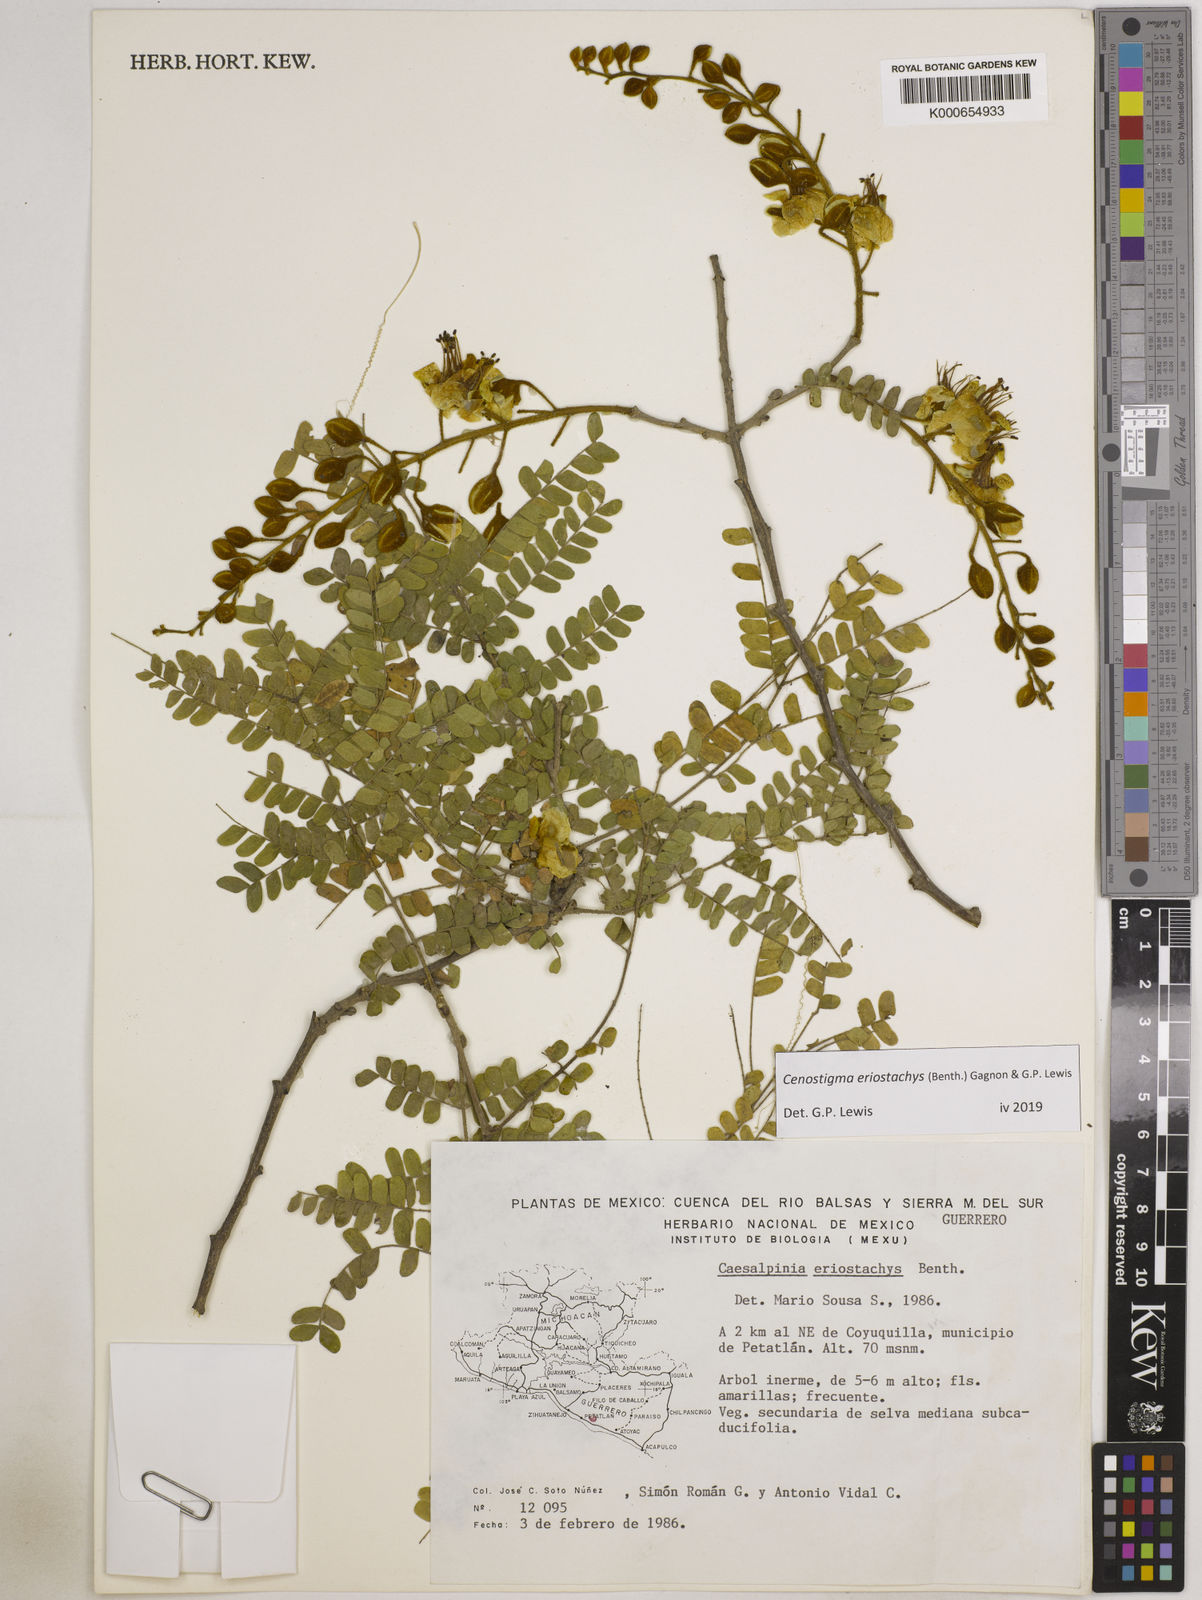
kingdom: Plantae
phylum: Tracheophyta
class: Magnoliopsida
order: Fabales
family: Fabaceae
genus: Cenostigma
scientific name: Cenostigma eriostachys
